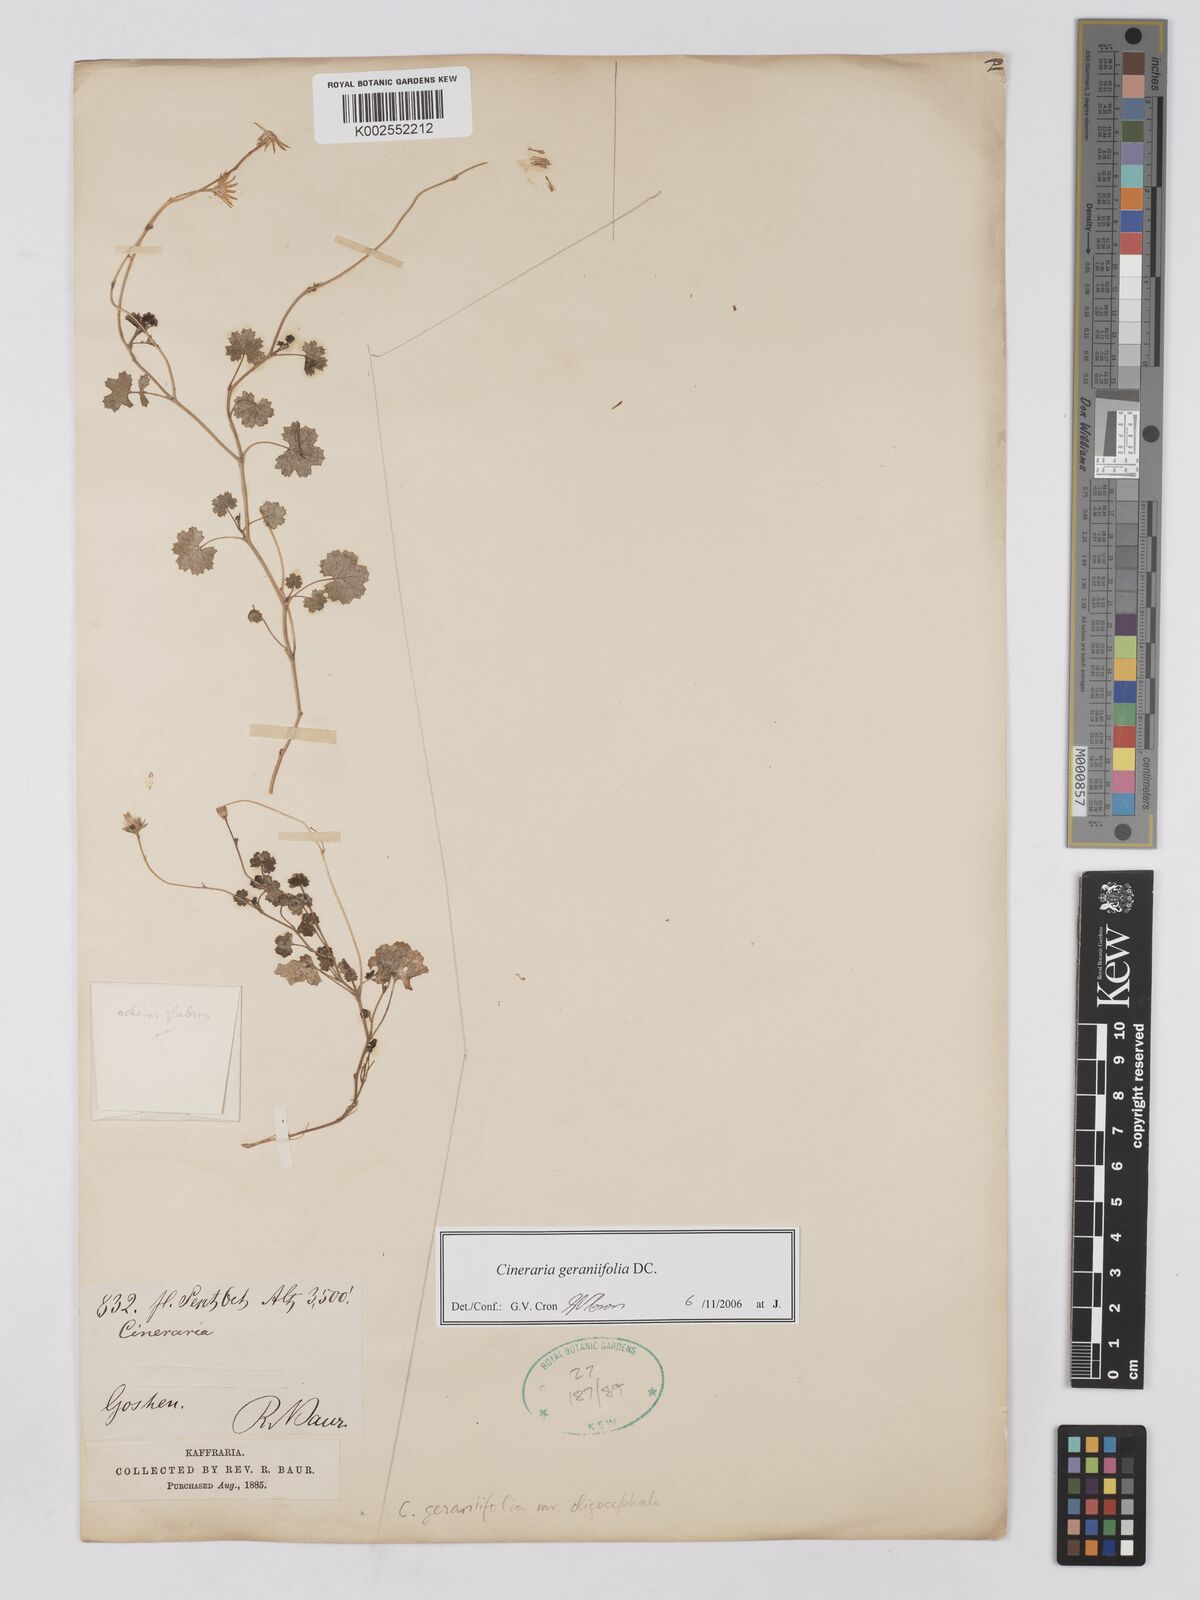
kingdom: Plantae
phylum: Tracheophyta
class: Magnoliopsida
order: Asterales
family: Asteraceae
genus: Cineraria
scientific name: Cineraria geraniifolia
